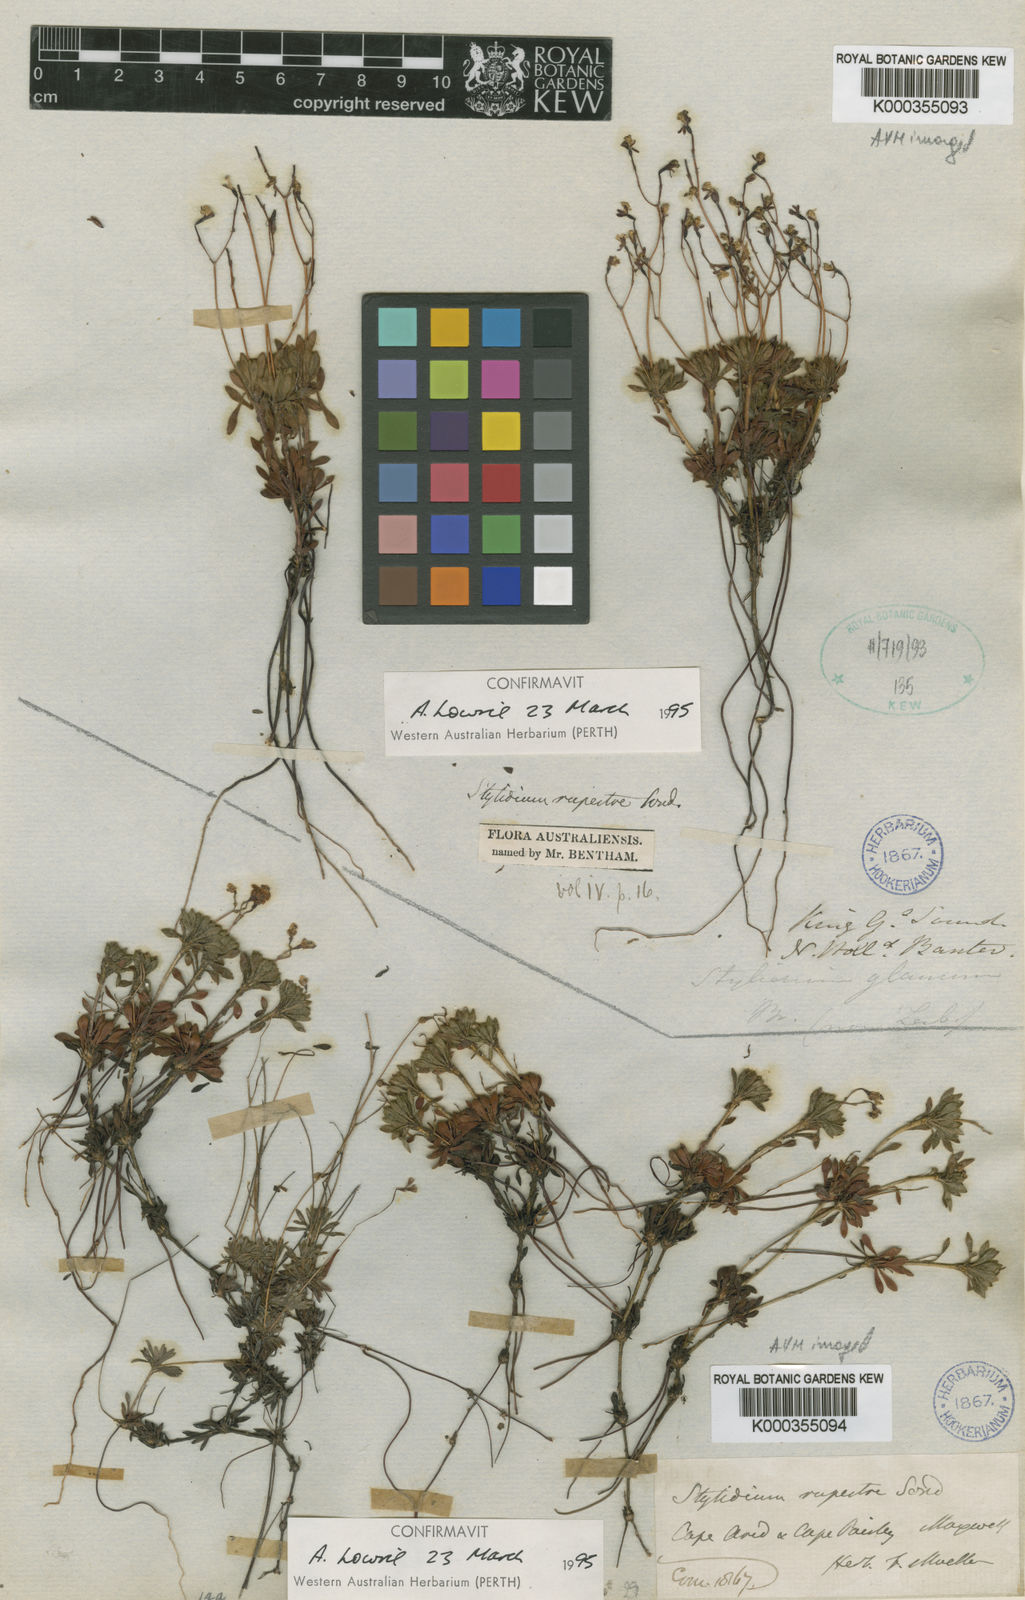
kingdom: Plantae
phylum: Tracheophyta
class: Magnoliopsida
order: Asterales
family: Stylidiaceae
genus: Stylidium
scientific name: Stylidium rupestre
